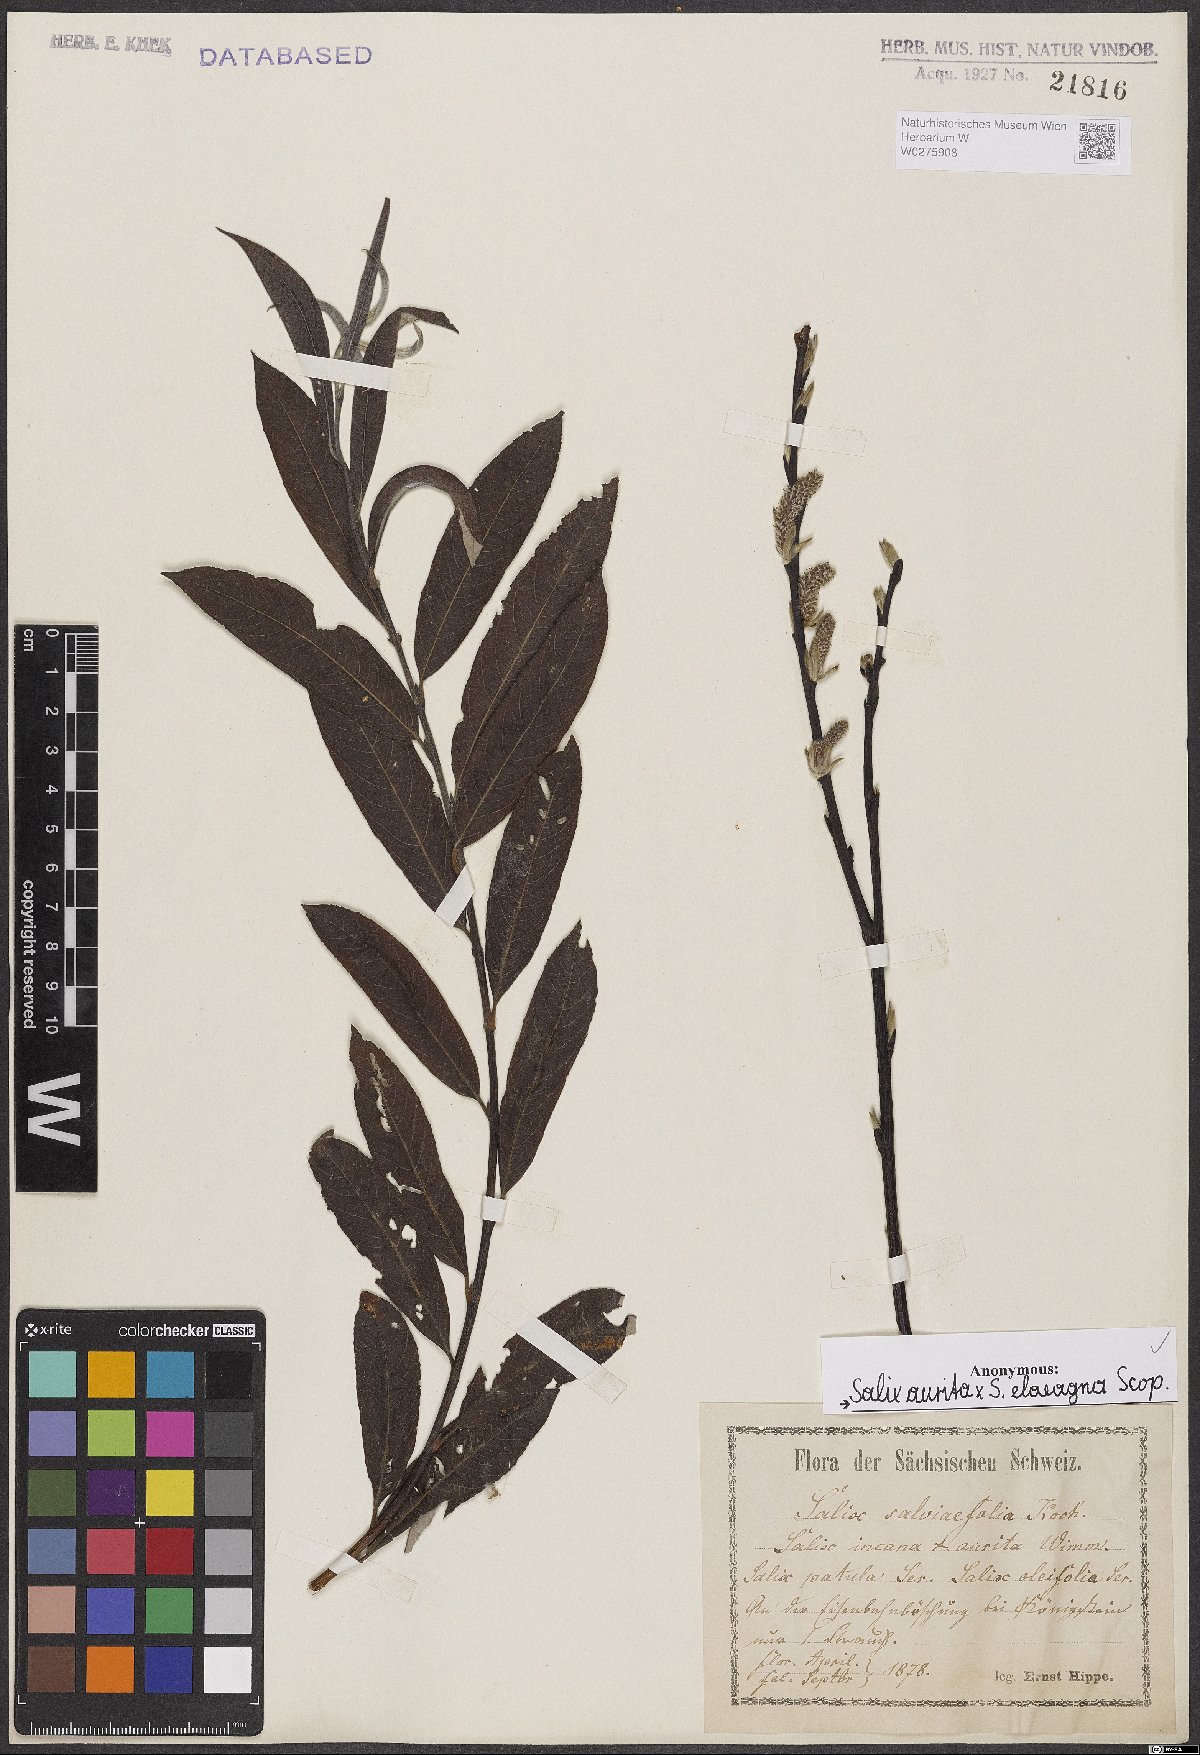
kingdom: Plantae
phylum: Tracheophyta
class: Magnoliopsida
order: Malpighiales
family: Salicaceae
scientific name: Salicaceae
